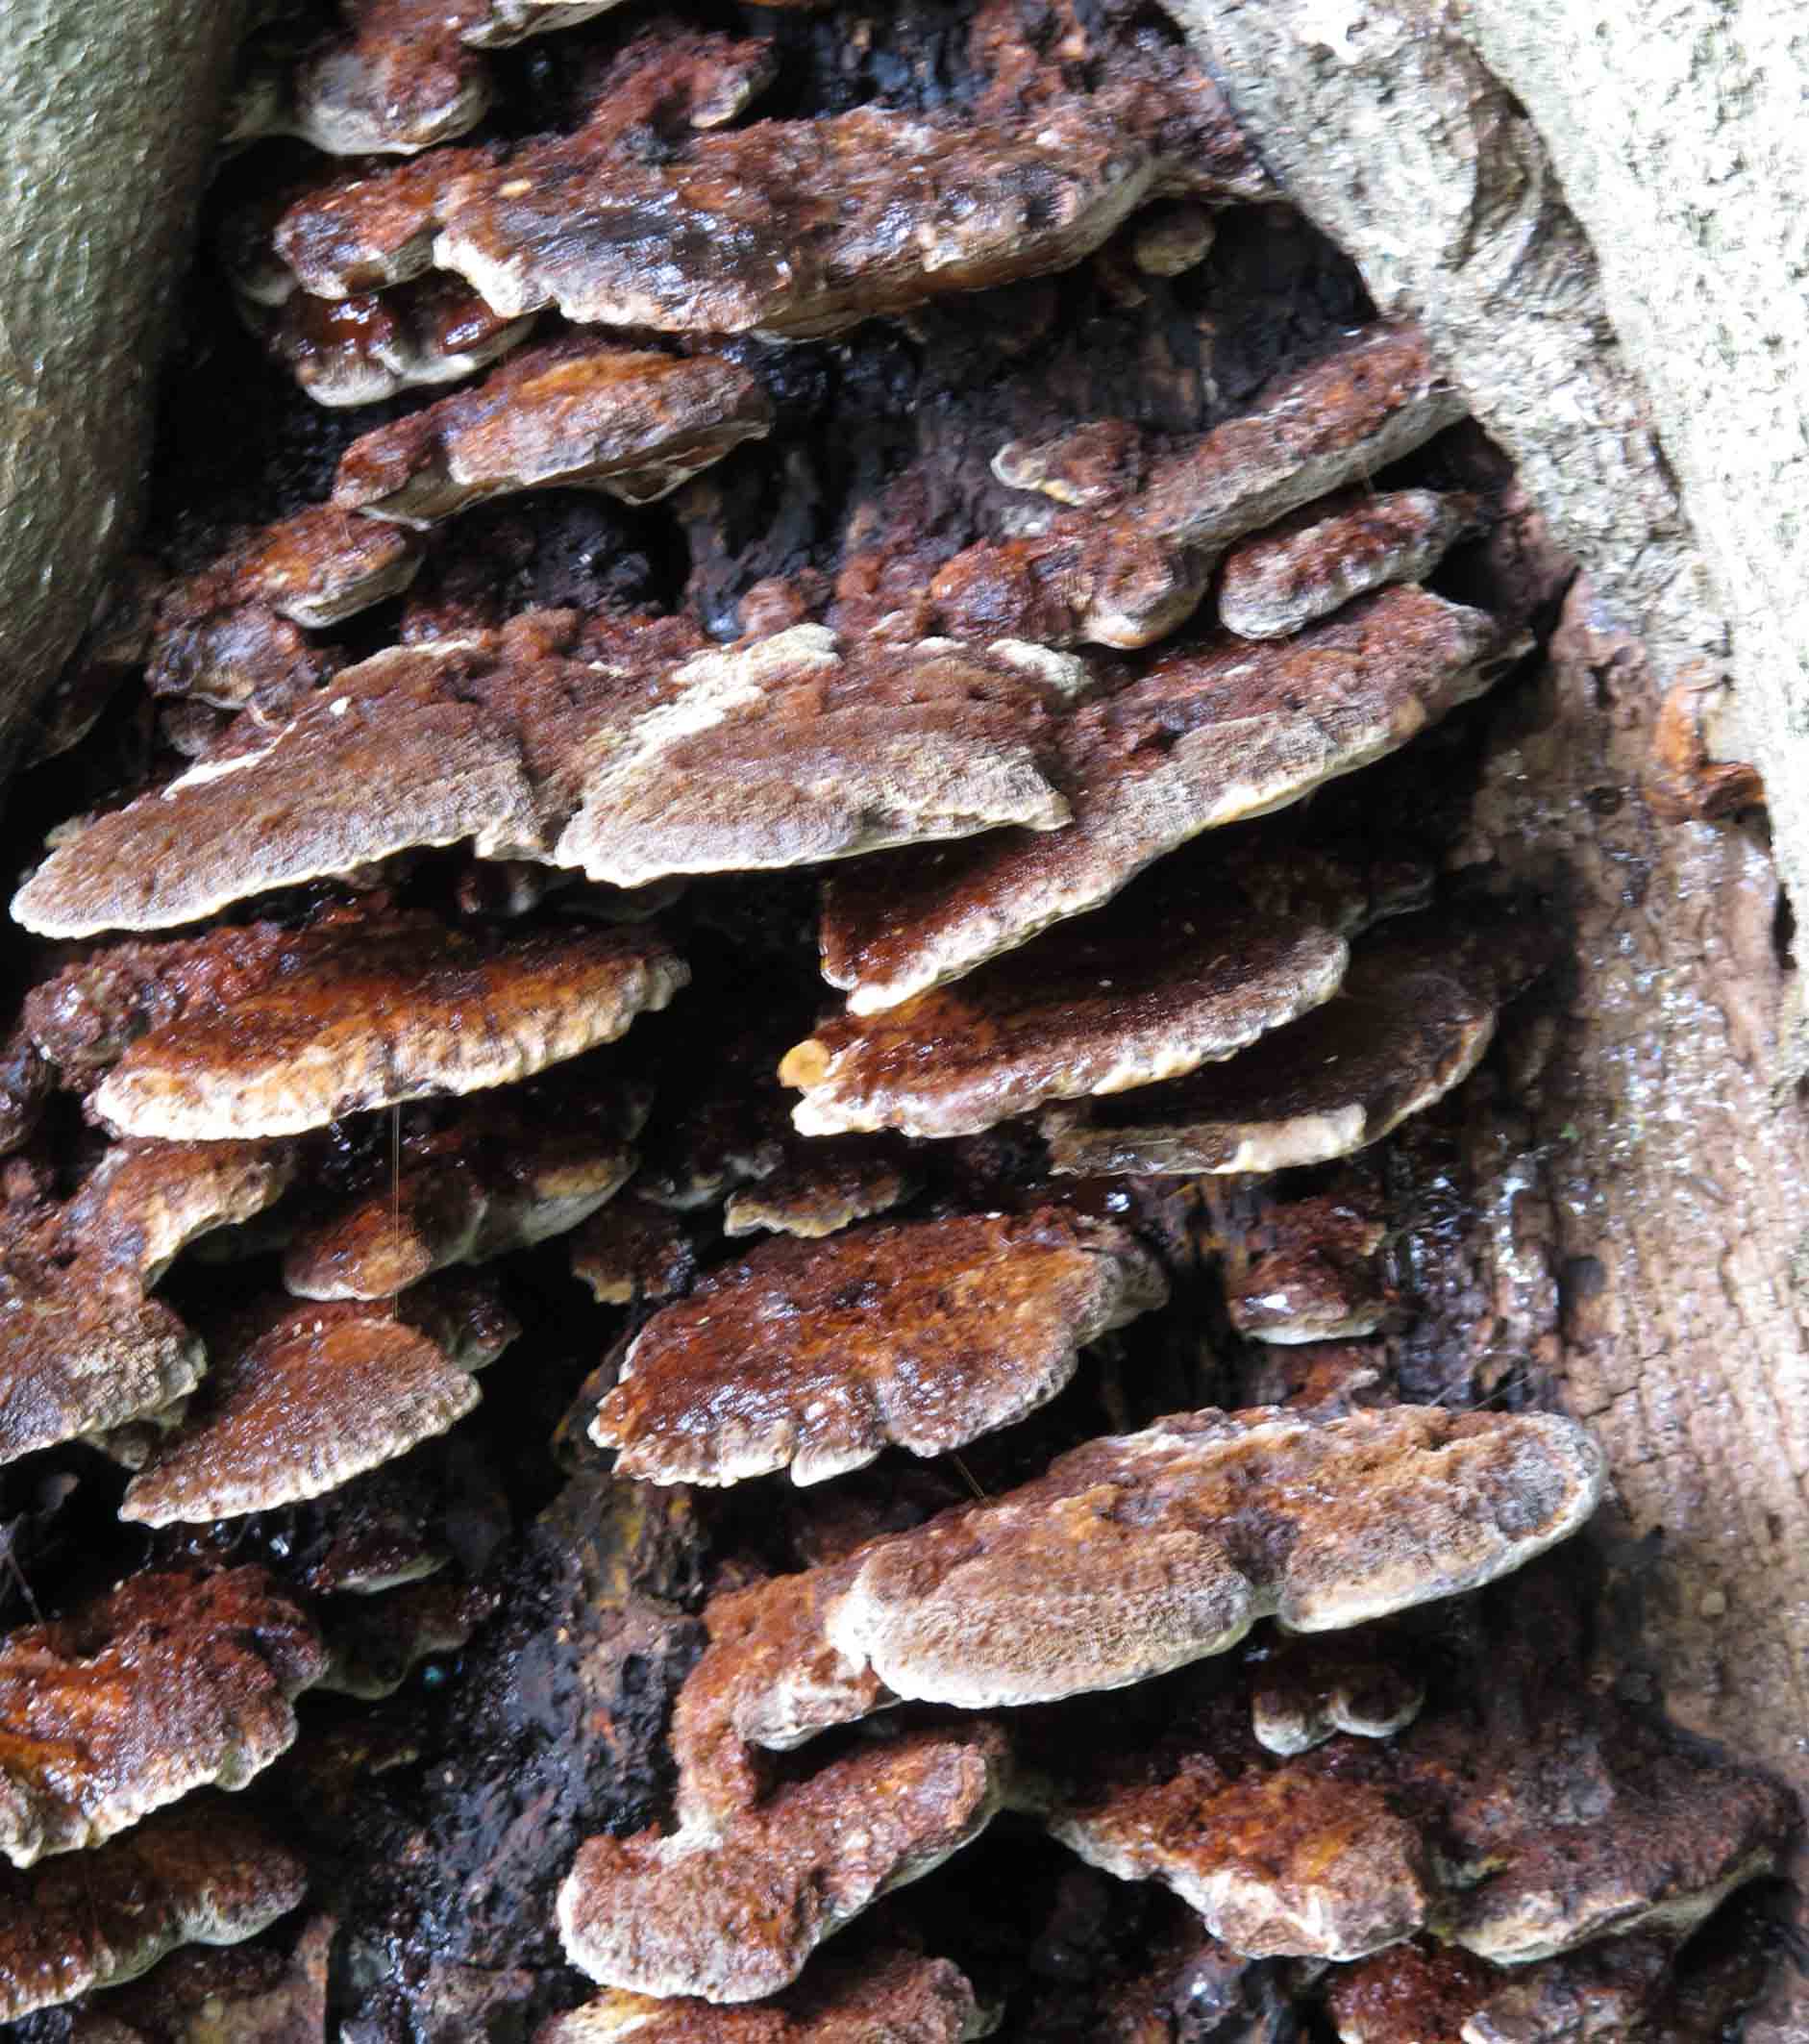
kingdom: Fungi
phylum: Basidiomycota
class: Agaricomycetes
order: Hymenochaetales
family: Hymenochaetaceae
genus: Inonotus
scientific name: Inonotus cuticularis
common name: kroghåret spejlporesvamp
